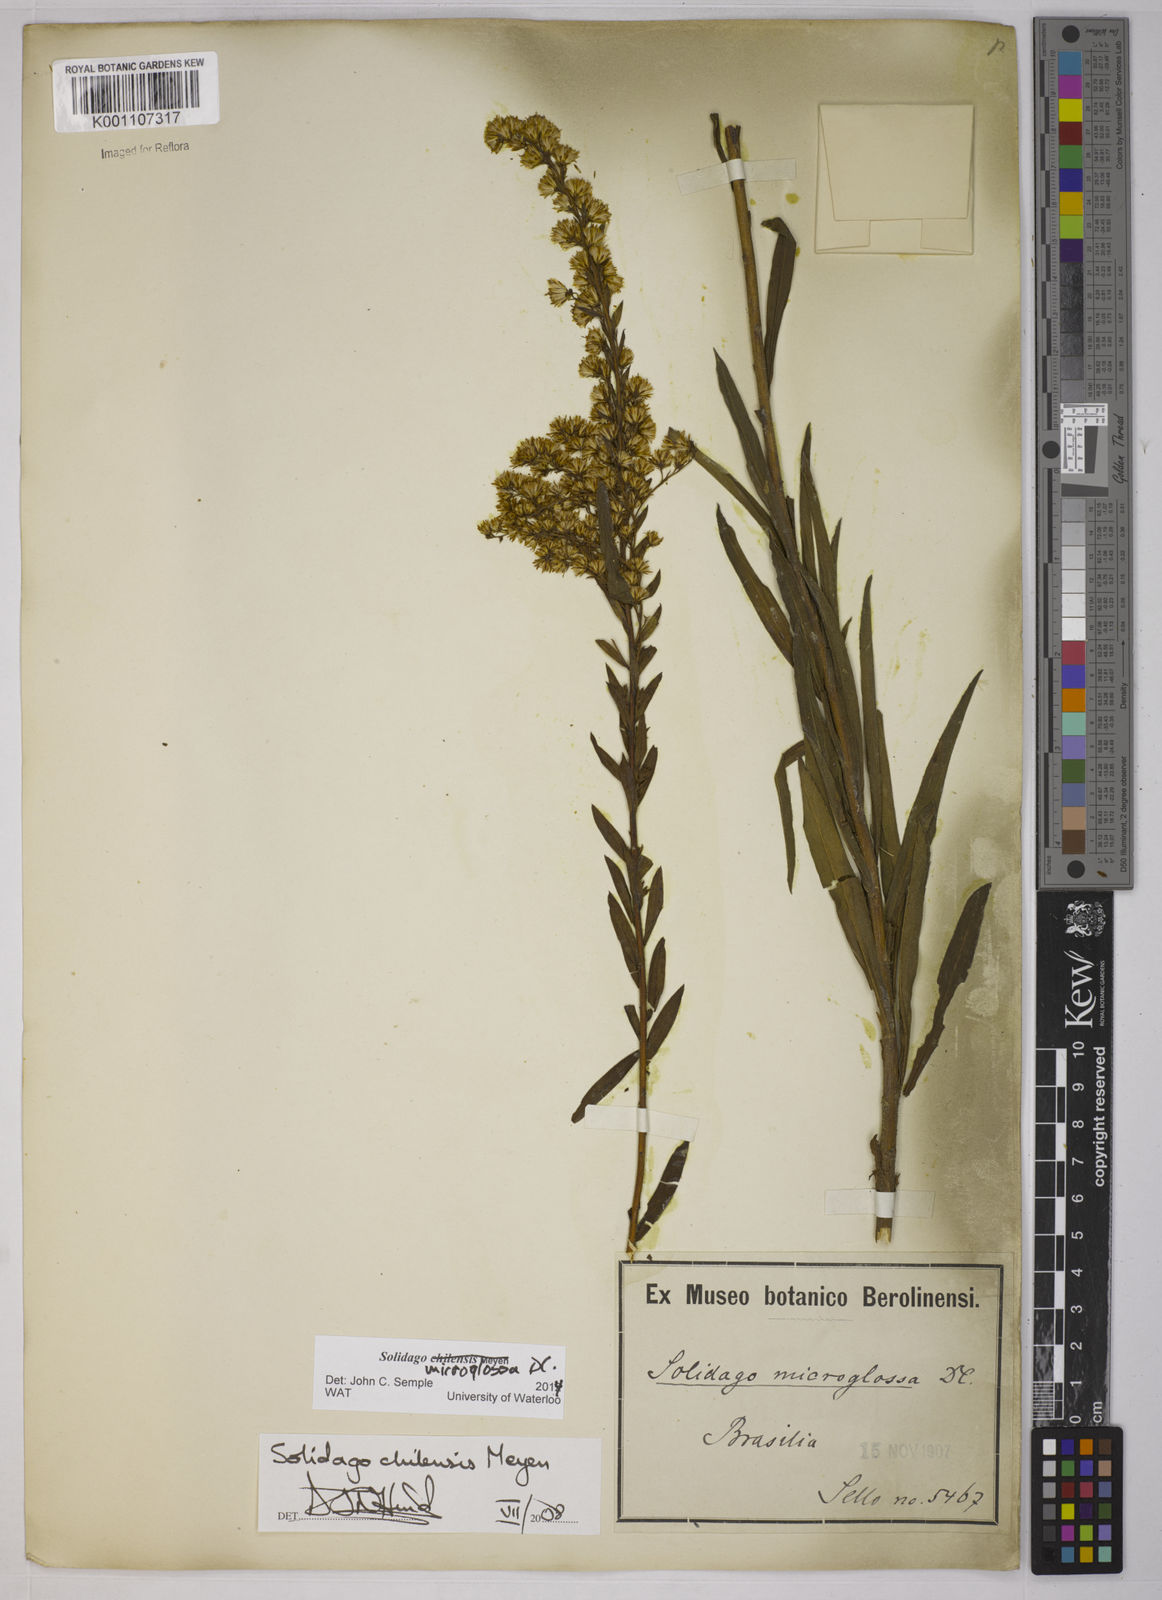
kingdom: Plantae
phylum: Tracheophyta
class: Magnoliopsida
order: Asterales
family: Asteraceae
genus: Solidago
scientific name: Solidago chilensis
